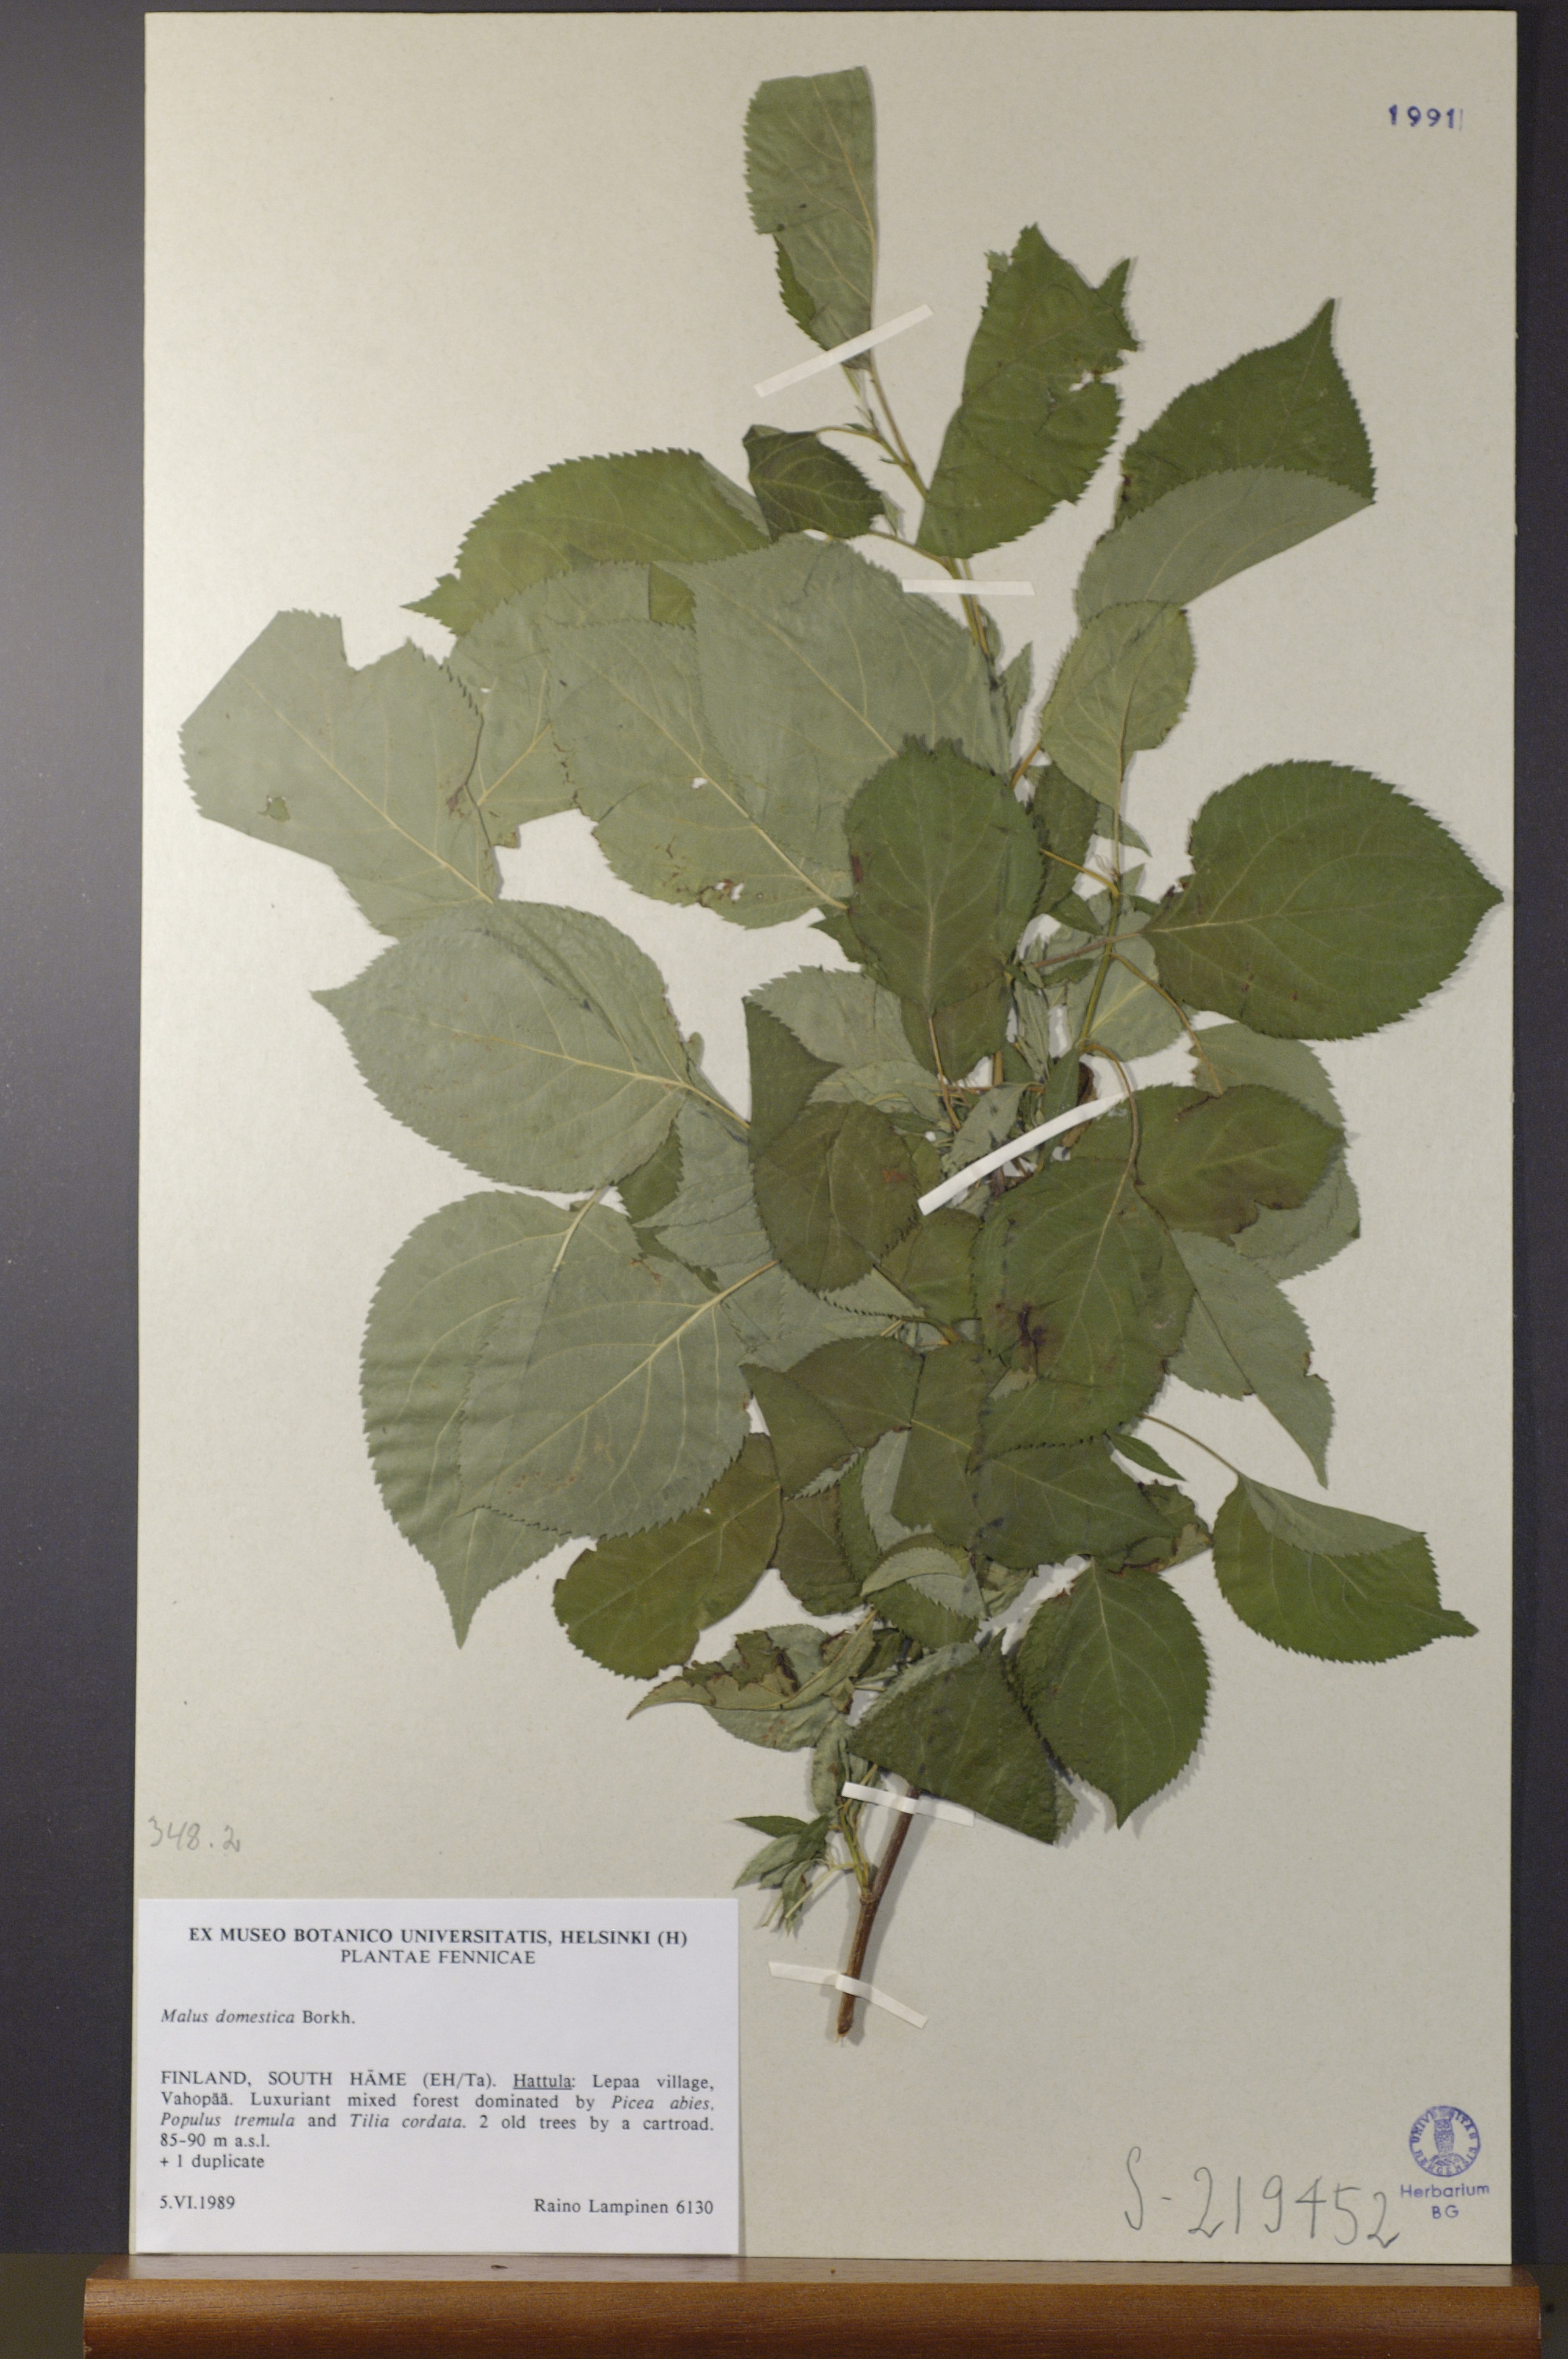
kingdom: Plantae
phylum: Tracheophyta
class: Magnoliopsida
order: Rosales
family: Rosaceae
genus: Malus
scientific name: Malus domestica
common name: Apple
